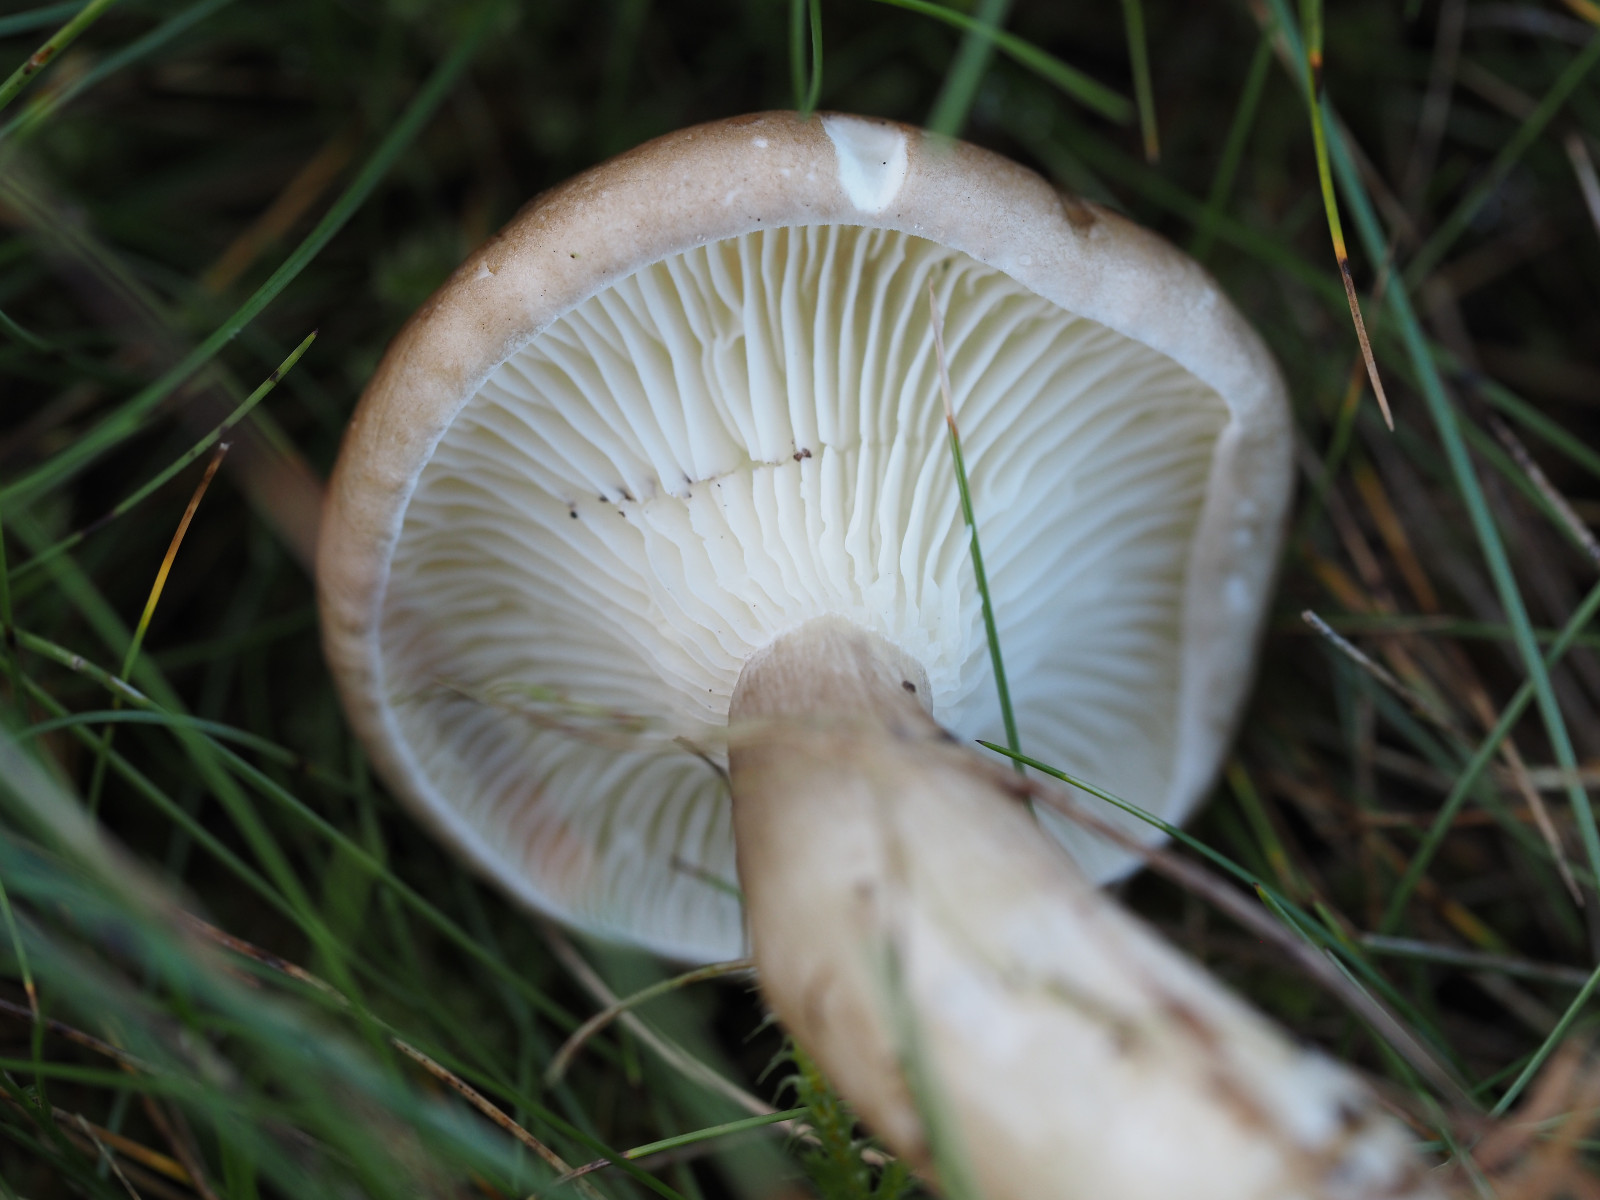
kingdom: Fungi
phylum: Basidiomycota
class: Agaricomycetes
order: Agaricales
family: Hygrophoraceae
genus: Ampulloclitocybe
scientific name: Ampulloclitocybe clavipes
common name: køllefod
